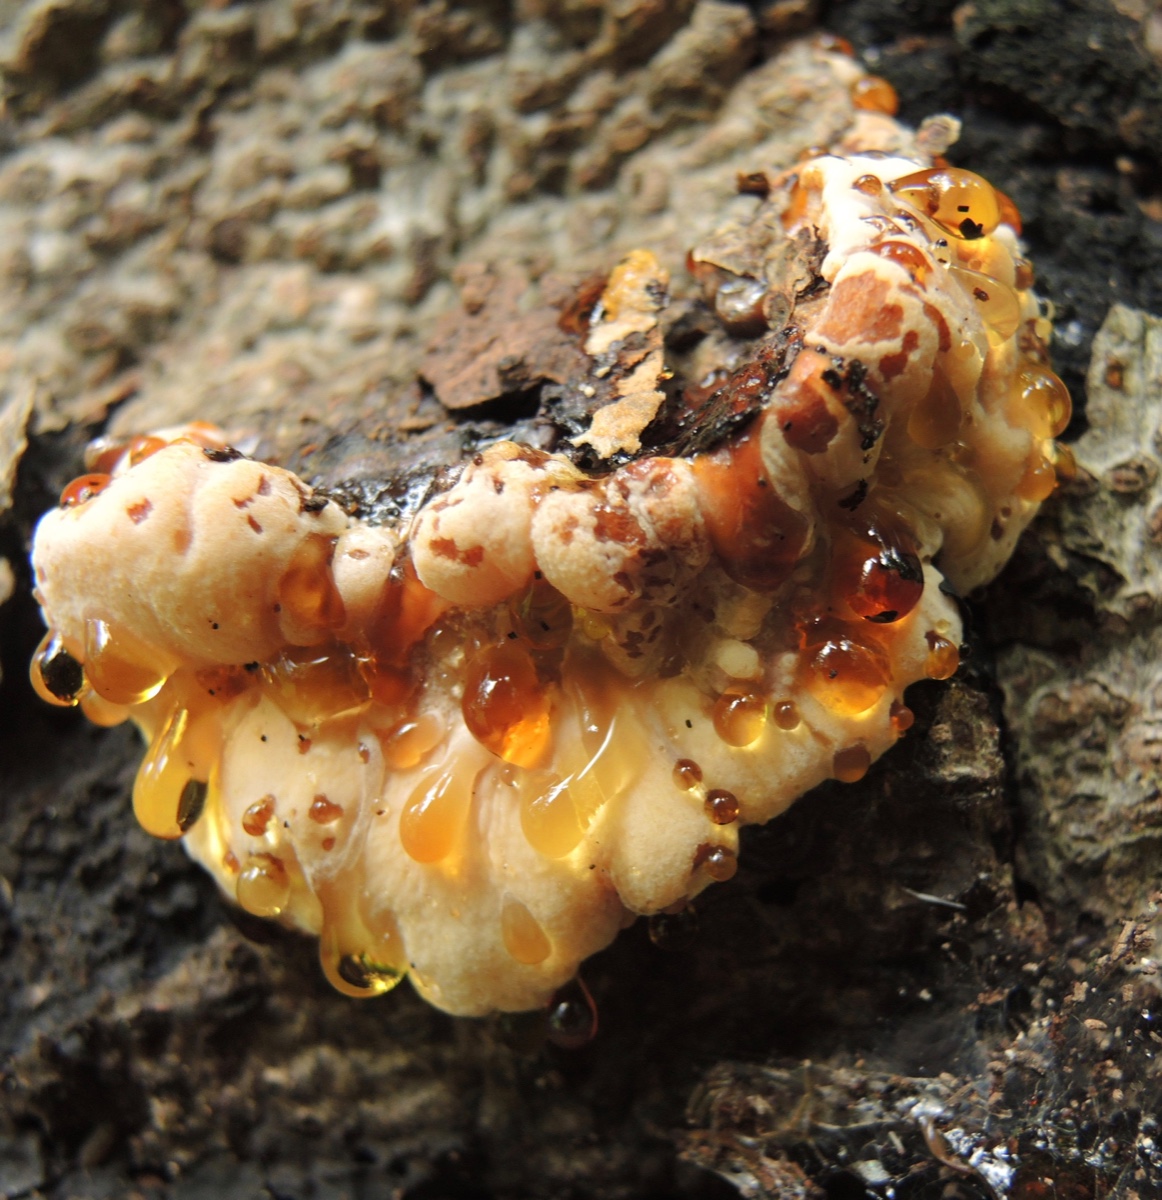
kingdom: Fungi
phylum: Basidiomycota
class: Agaricomycetes
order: Polyporales
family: Ischnodermataceae
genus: Ischnoderma
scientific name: Ischnoderma resinosum
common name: løv-tjæreporesvamp
